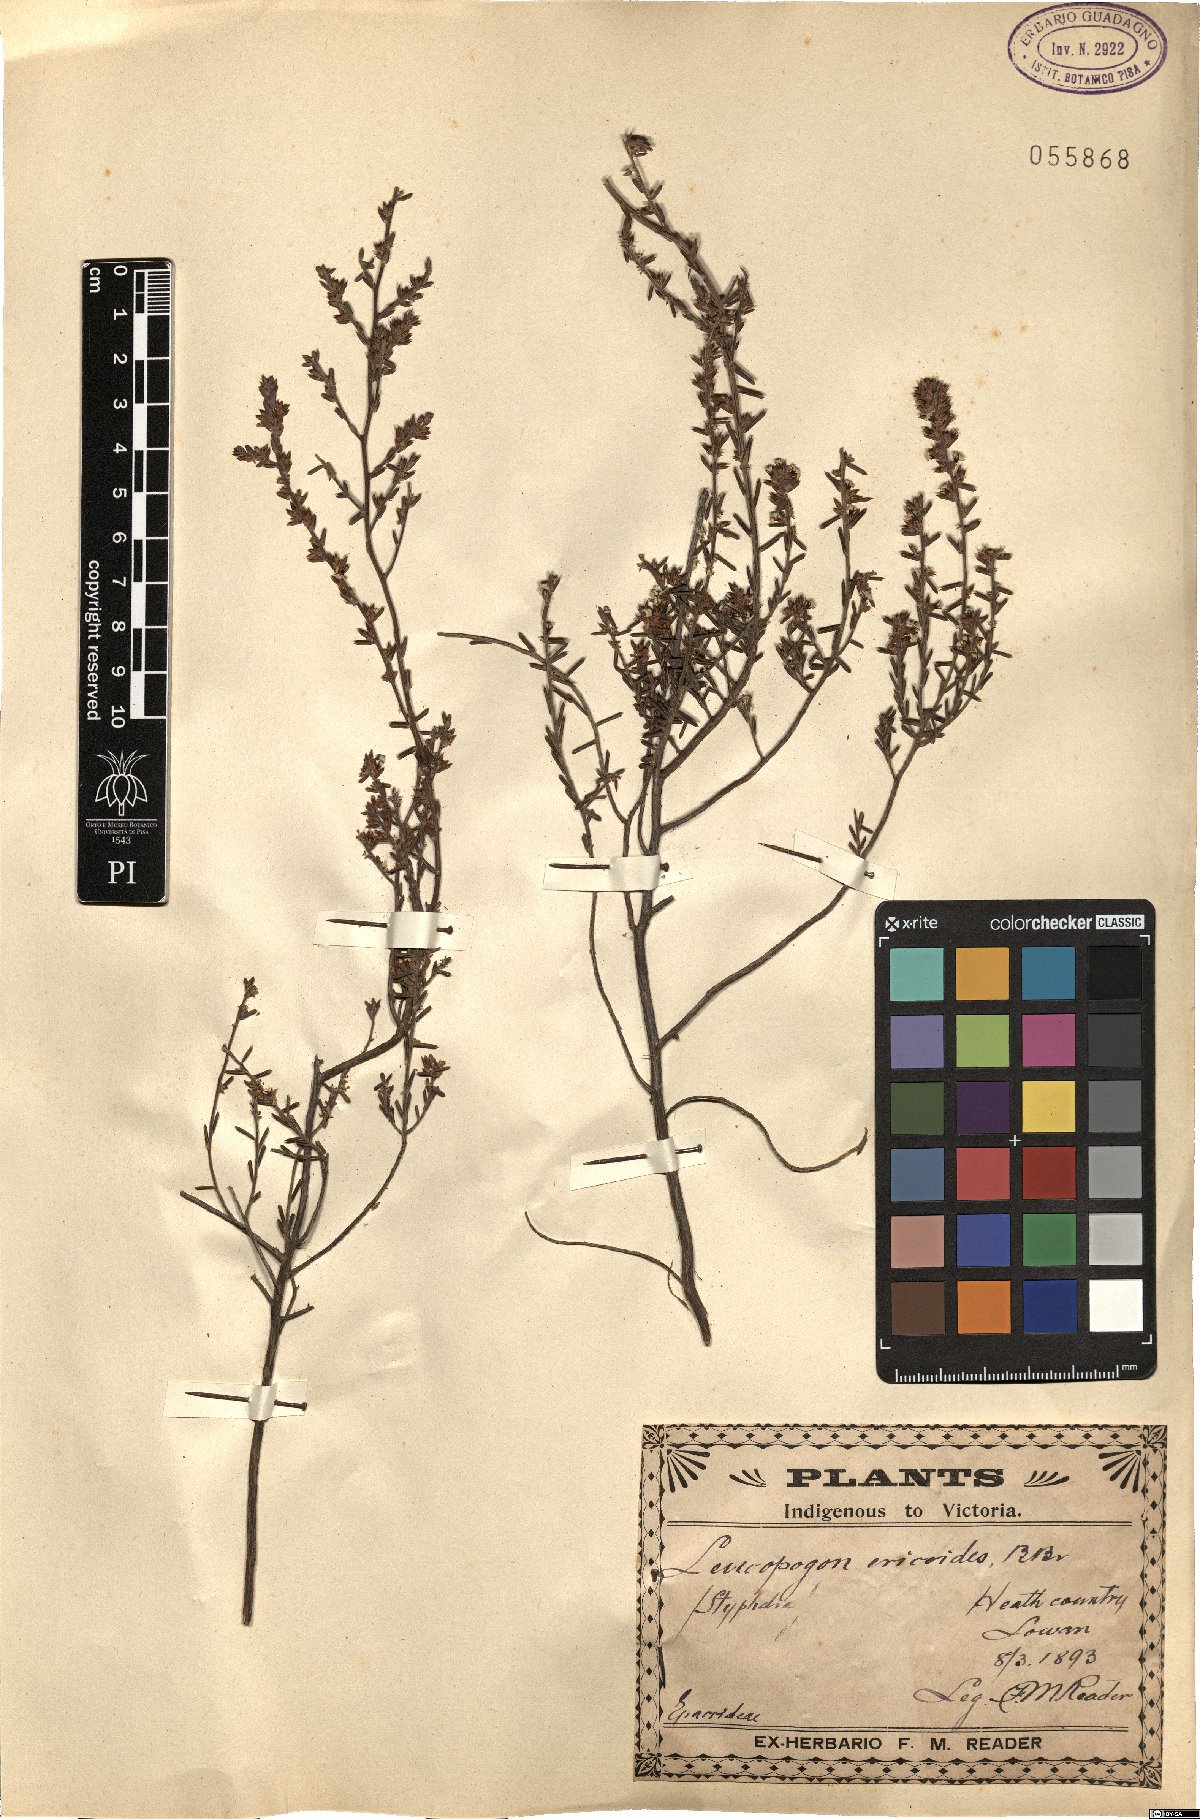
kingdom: Plantae
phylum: Tracheophyta
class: Magnoliopsida
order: Ericales
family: Ericaceae
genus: Styphelia
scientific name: Styphelia ericoides
